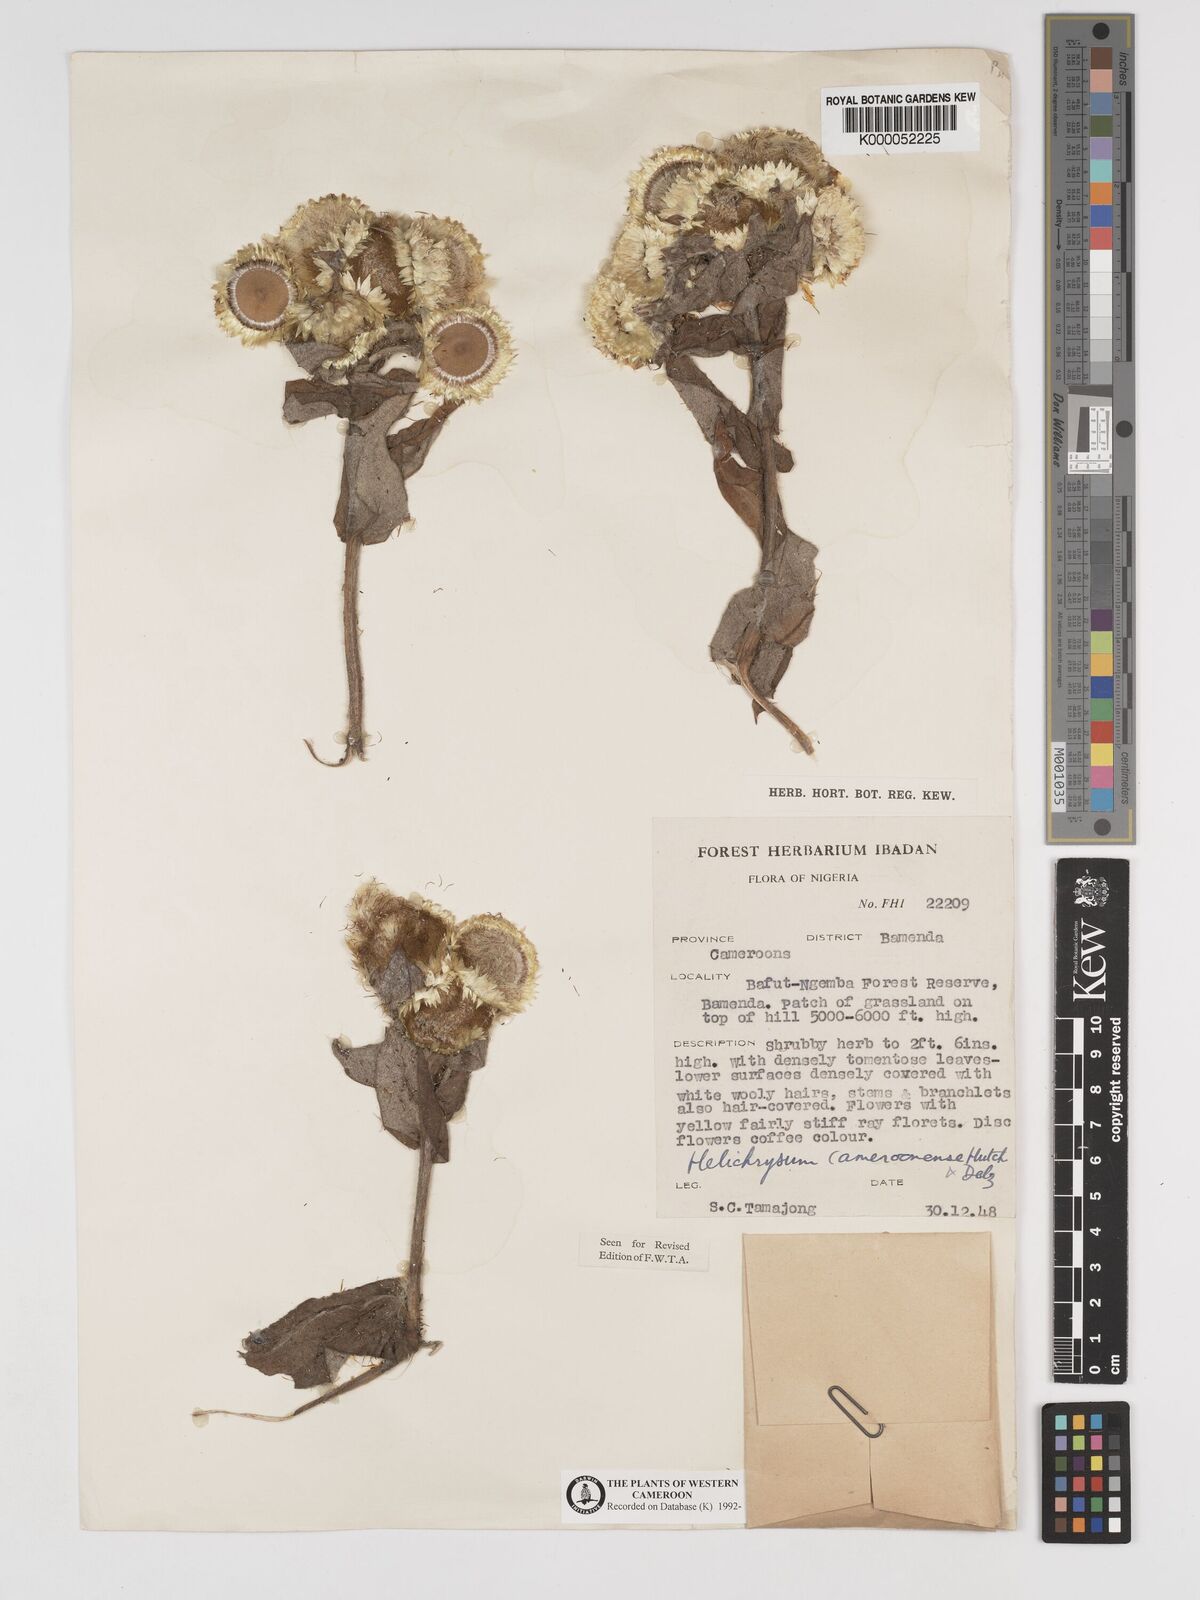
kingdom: Plantae
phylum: Tracheophyta
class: Magnoliopsida
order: Asterales
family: Asteraceae
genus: Helichrysum
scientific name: Helichrysum cameroonense
